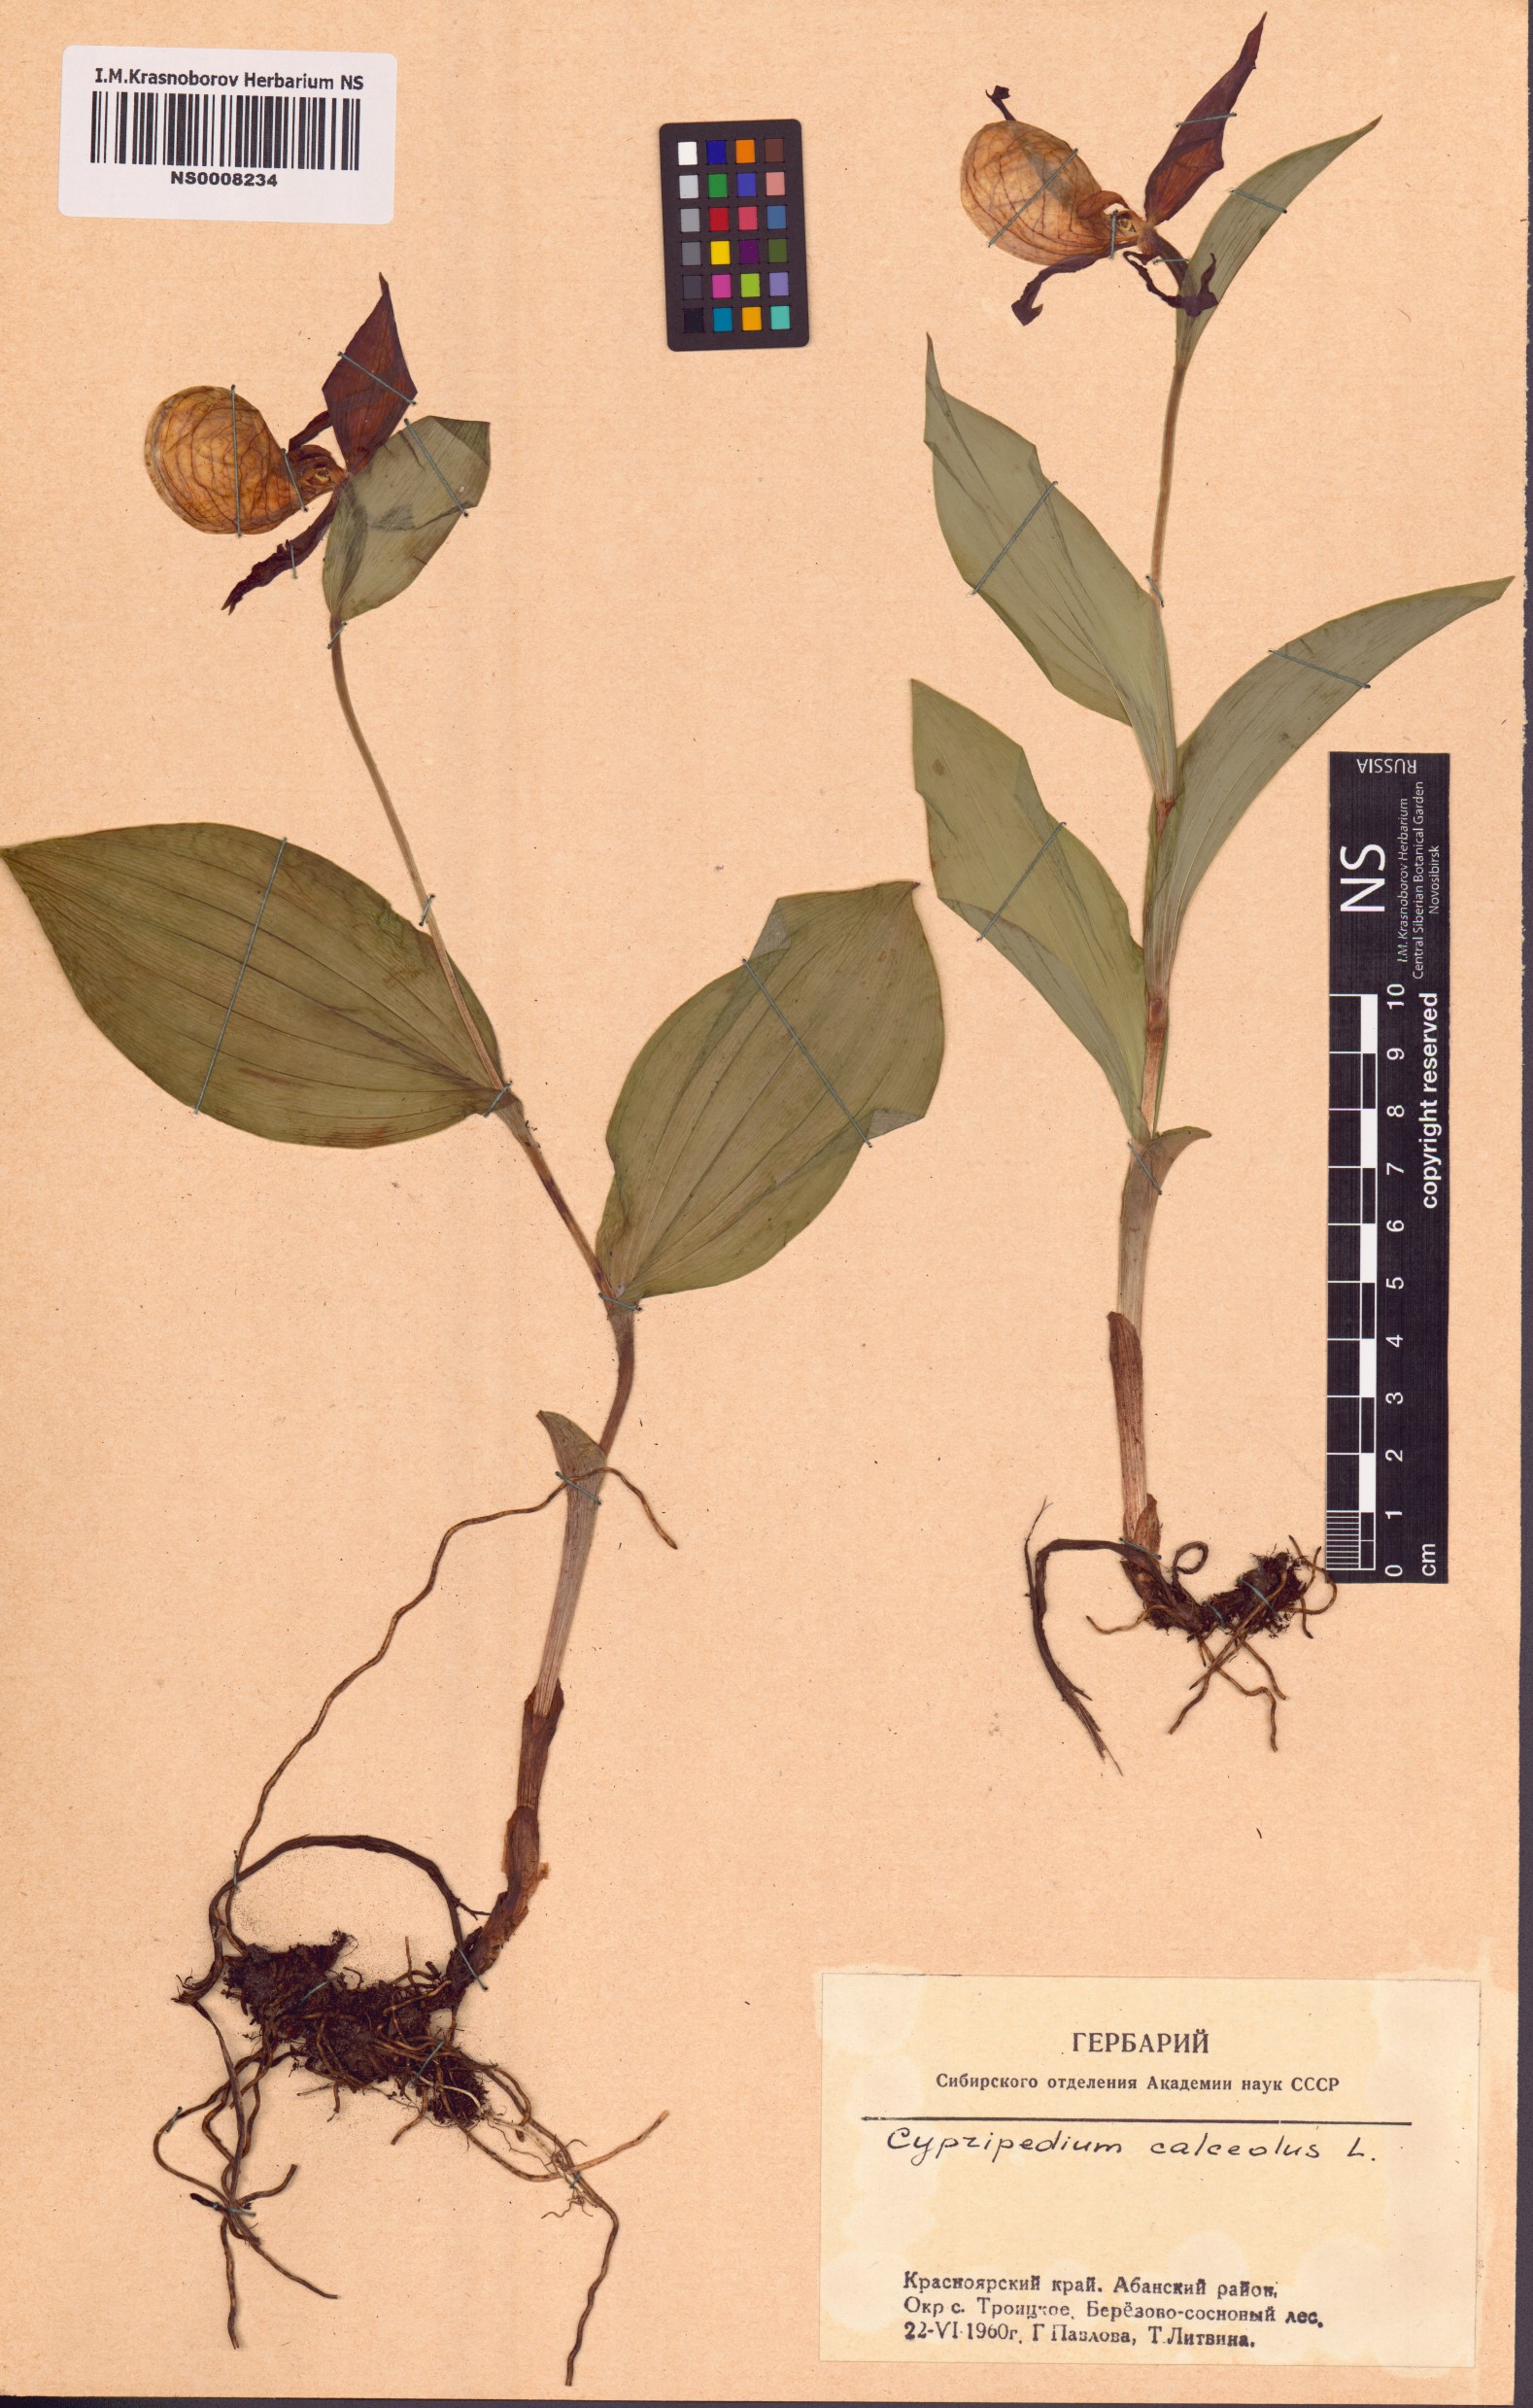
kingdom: Plantae
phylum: Tracheophyta
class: Liliopsida
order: Asparagales
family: Orchidaceae
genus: Cypripedium
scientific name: Cypripedium calceolus
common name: Lady's-slipper
